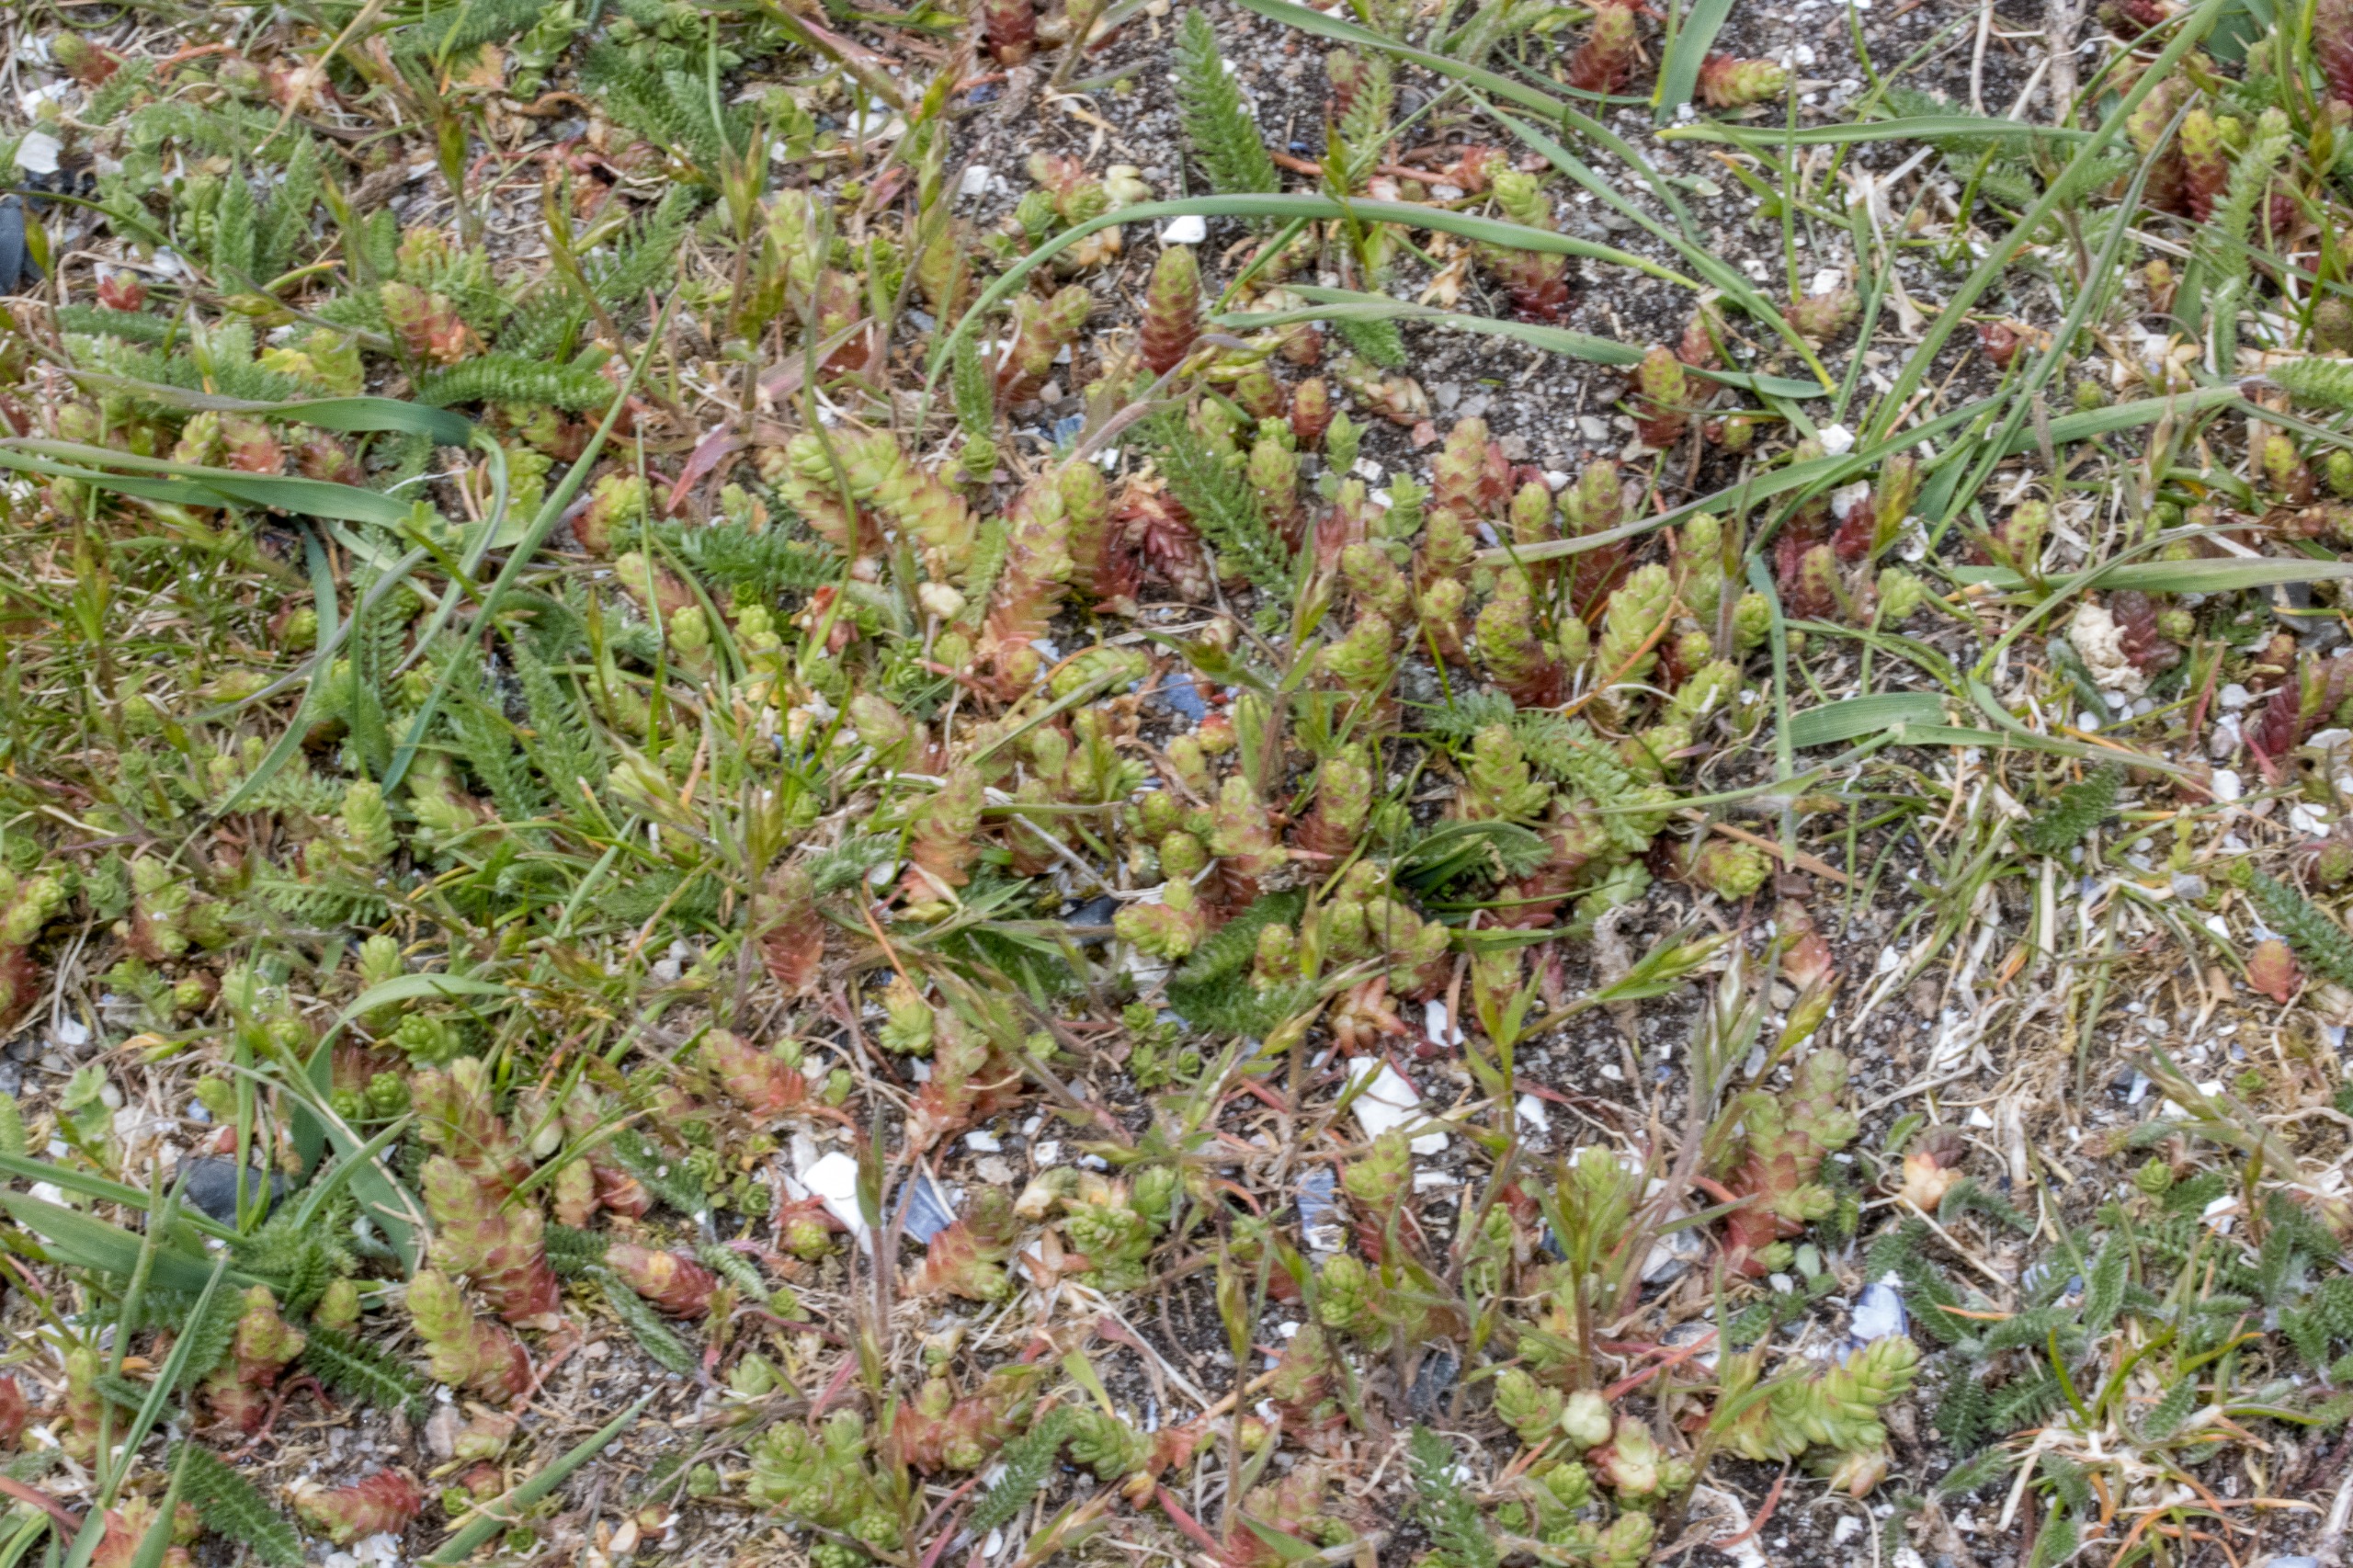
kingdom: Plantae
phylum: Tracheophyta
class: Magnoliopsida
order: Saxifragales
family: Crassulaceae
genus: Sedum
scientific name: Sedum acre
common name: Bidende stenurt
